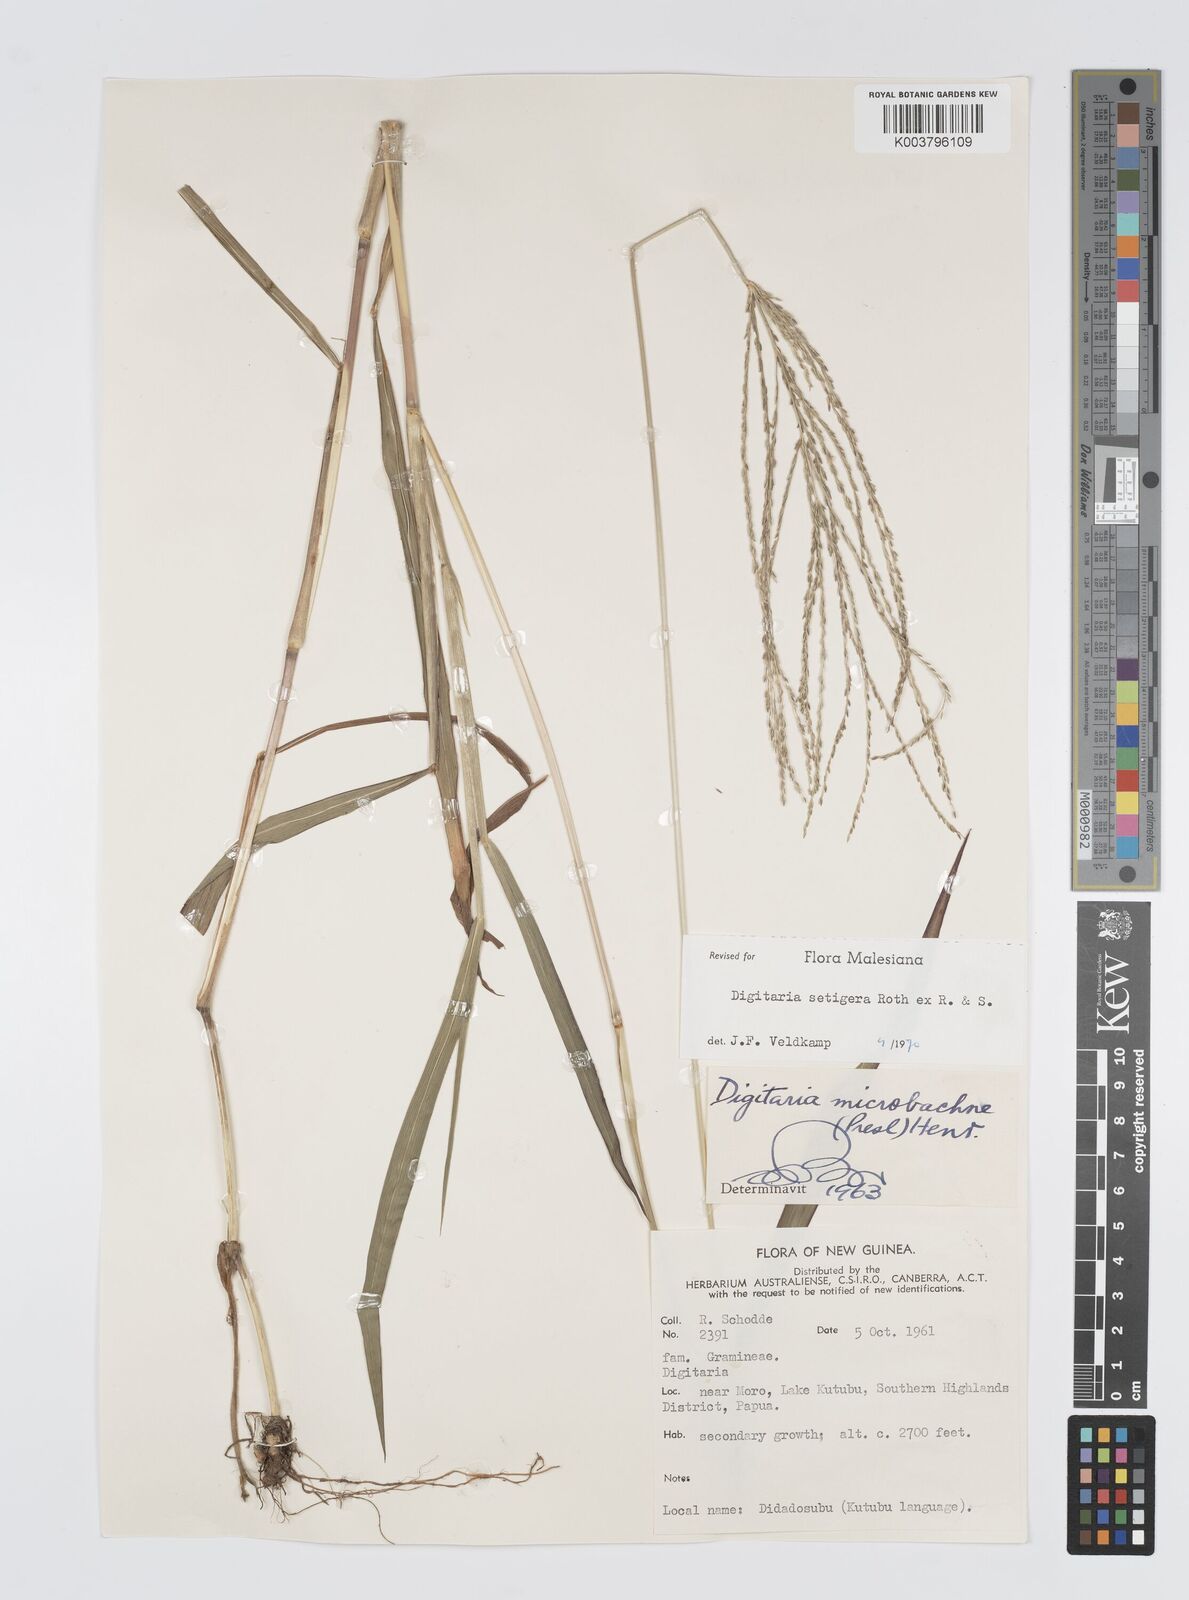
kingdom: Plantae
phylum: Tracheophyta
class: Liliopsida
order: Poales
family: Poaceae
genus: Digitaria
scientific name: Digitaria setigera
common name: East indian crabgrass
